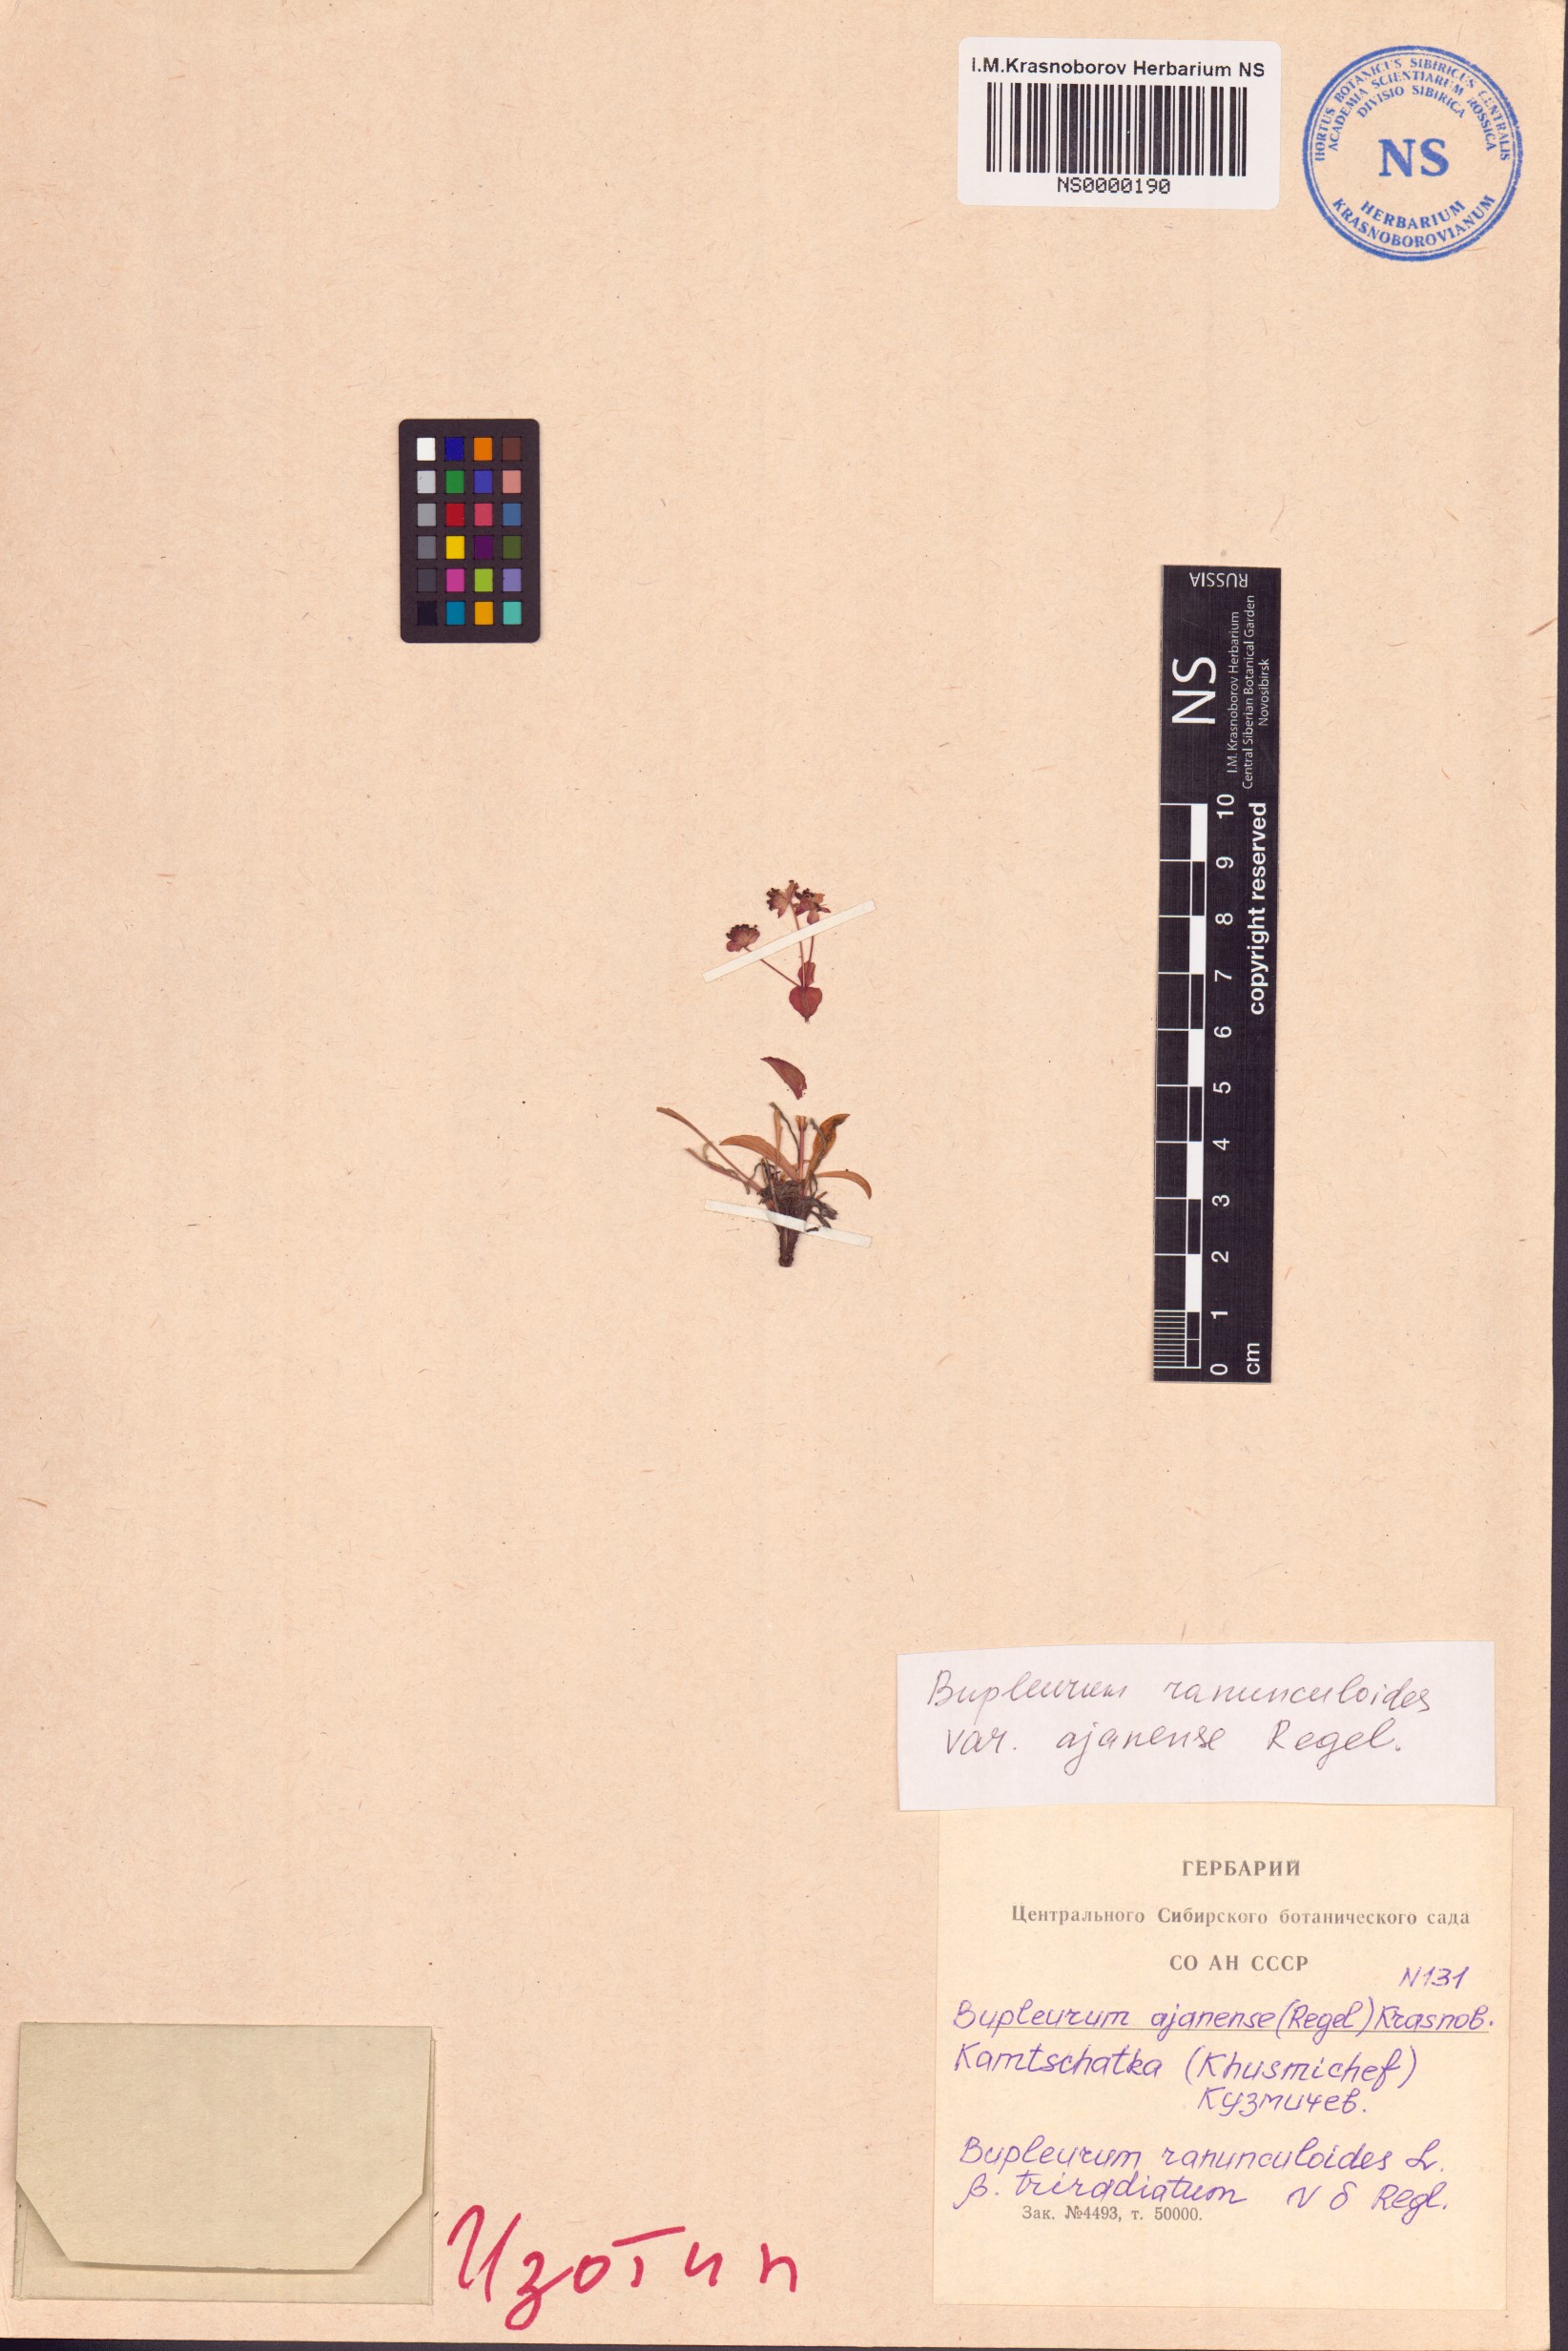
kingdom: Plantae
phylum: Tracheophyta
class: Magnoliopsida
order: Apiales
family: Apiaceae
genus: Bupleurum
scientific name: Bupleurum triradiatum
